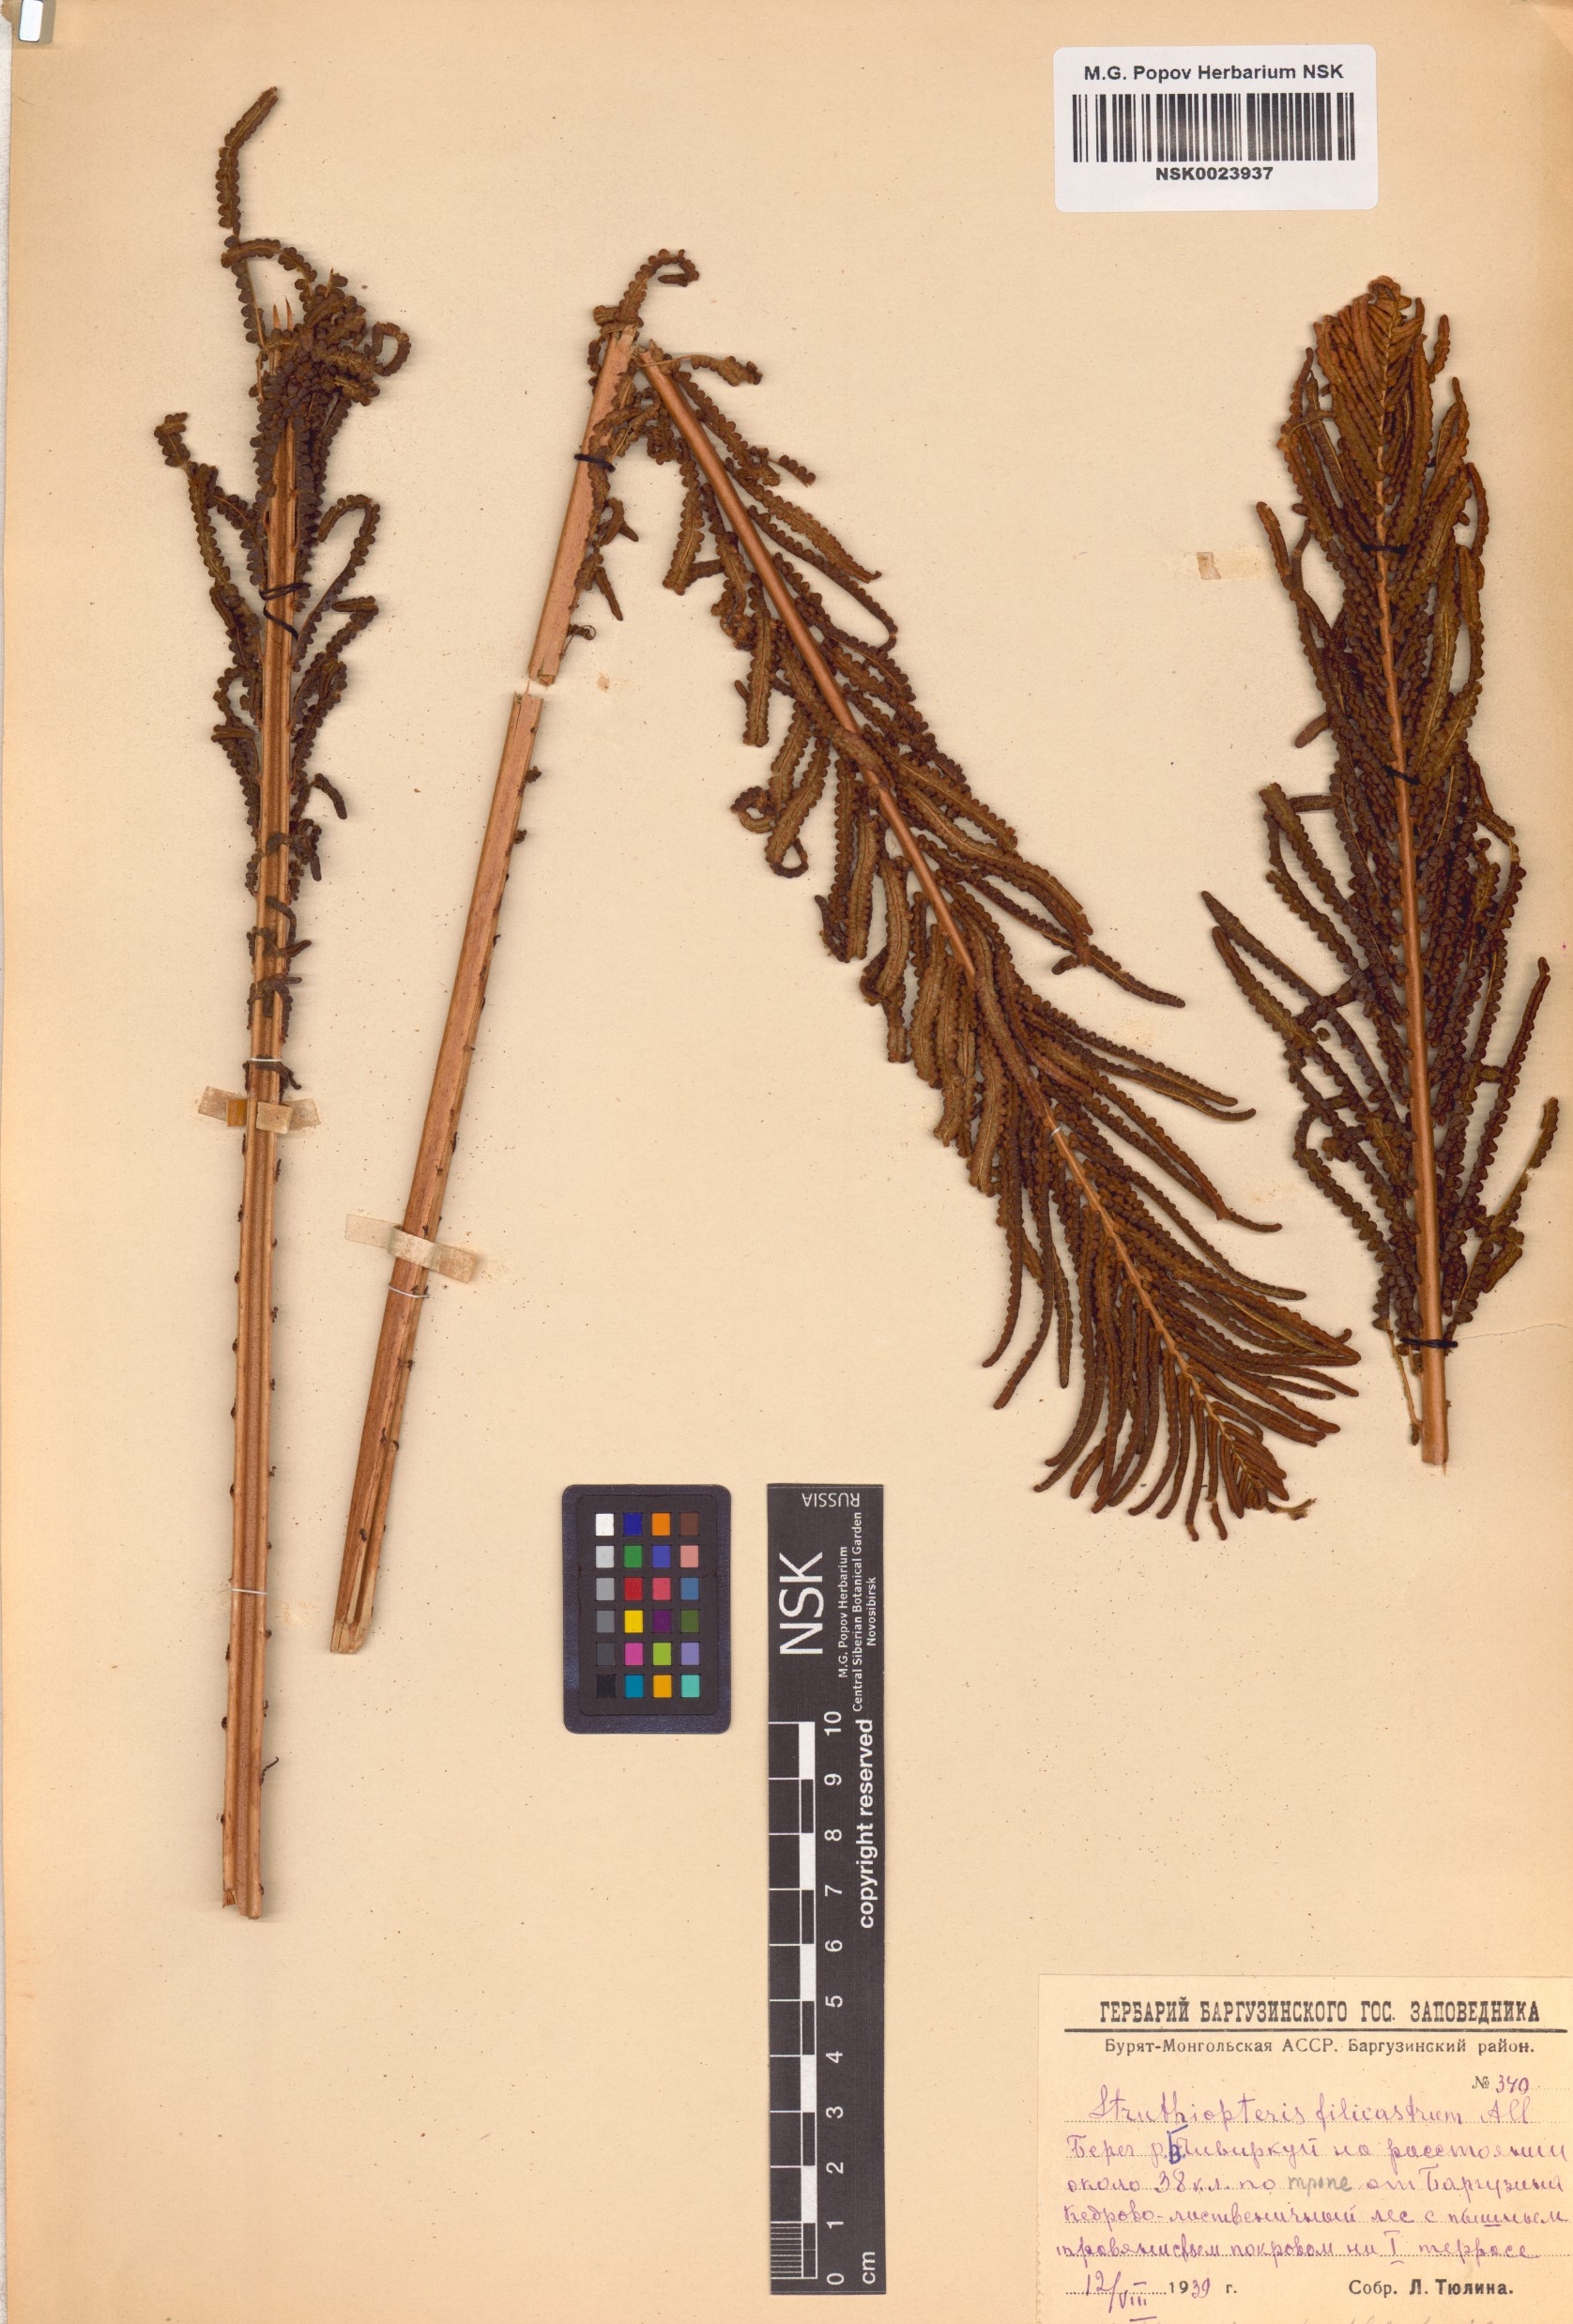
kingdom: Plantae
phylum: Tracheophyta
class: Polypodiopsida
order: Polypodiales
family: Onocleaceae
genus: Matteuccia
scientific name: Matteuccia struthiopteris
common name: Ostrich fern
